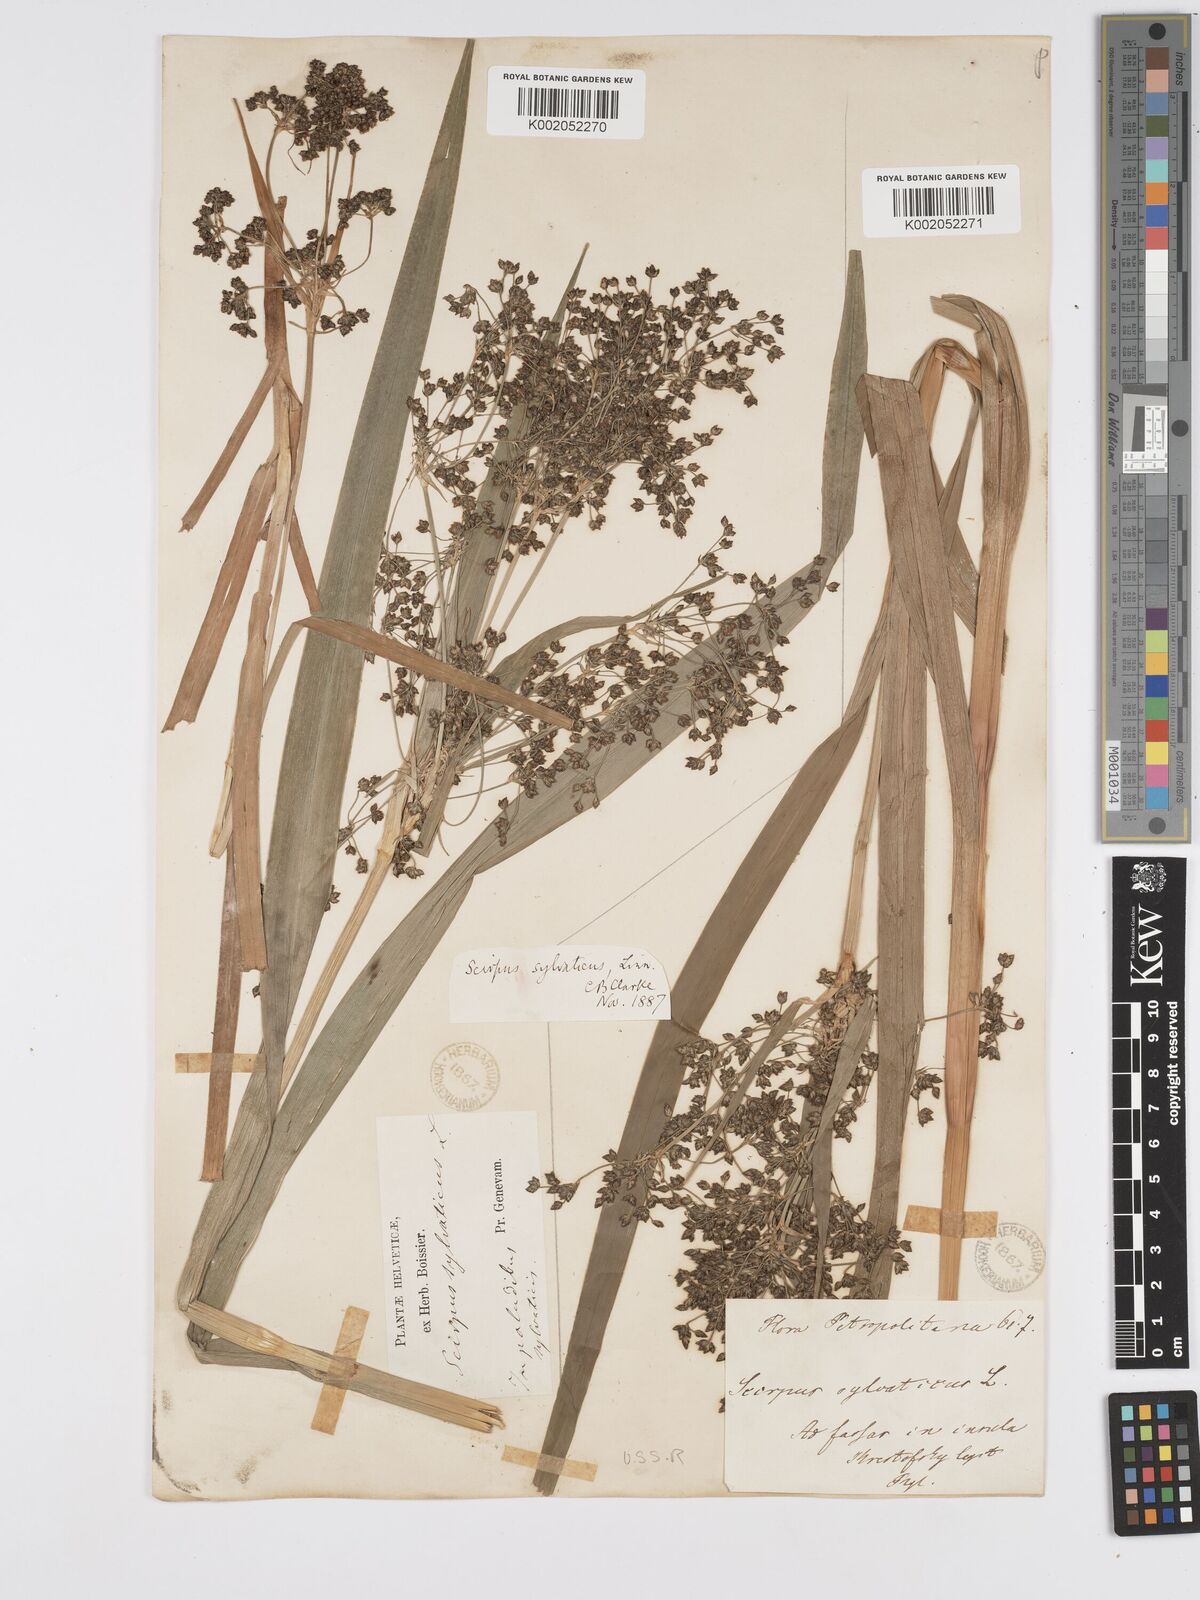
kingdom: Plantae
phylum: Tracheophyta
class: Liliopsida
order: Poales
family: Cyperaceae
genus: Scirpus
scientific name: Scirpus sylvaticus
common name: Wood club-rush
